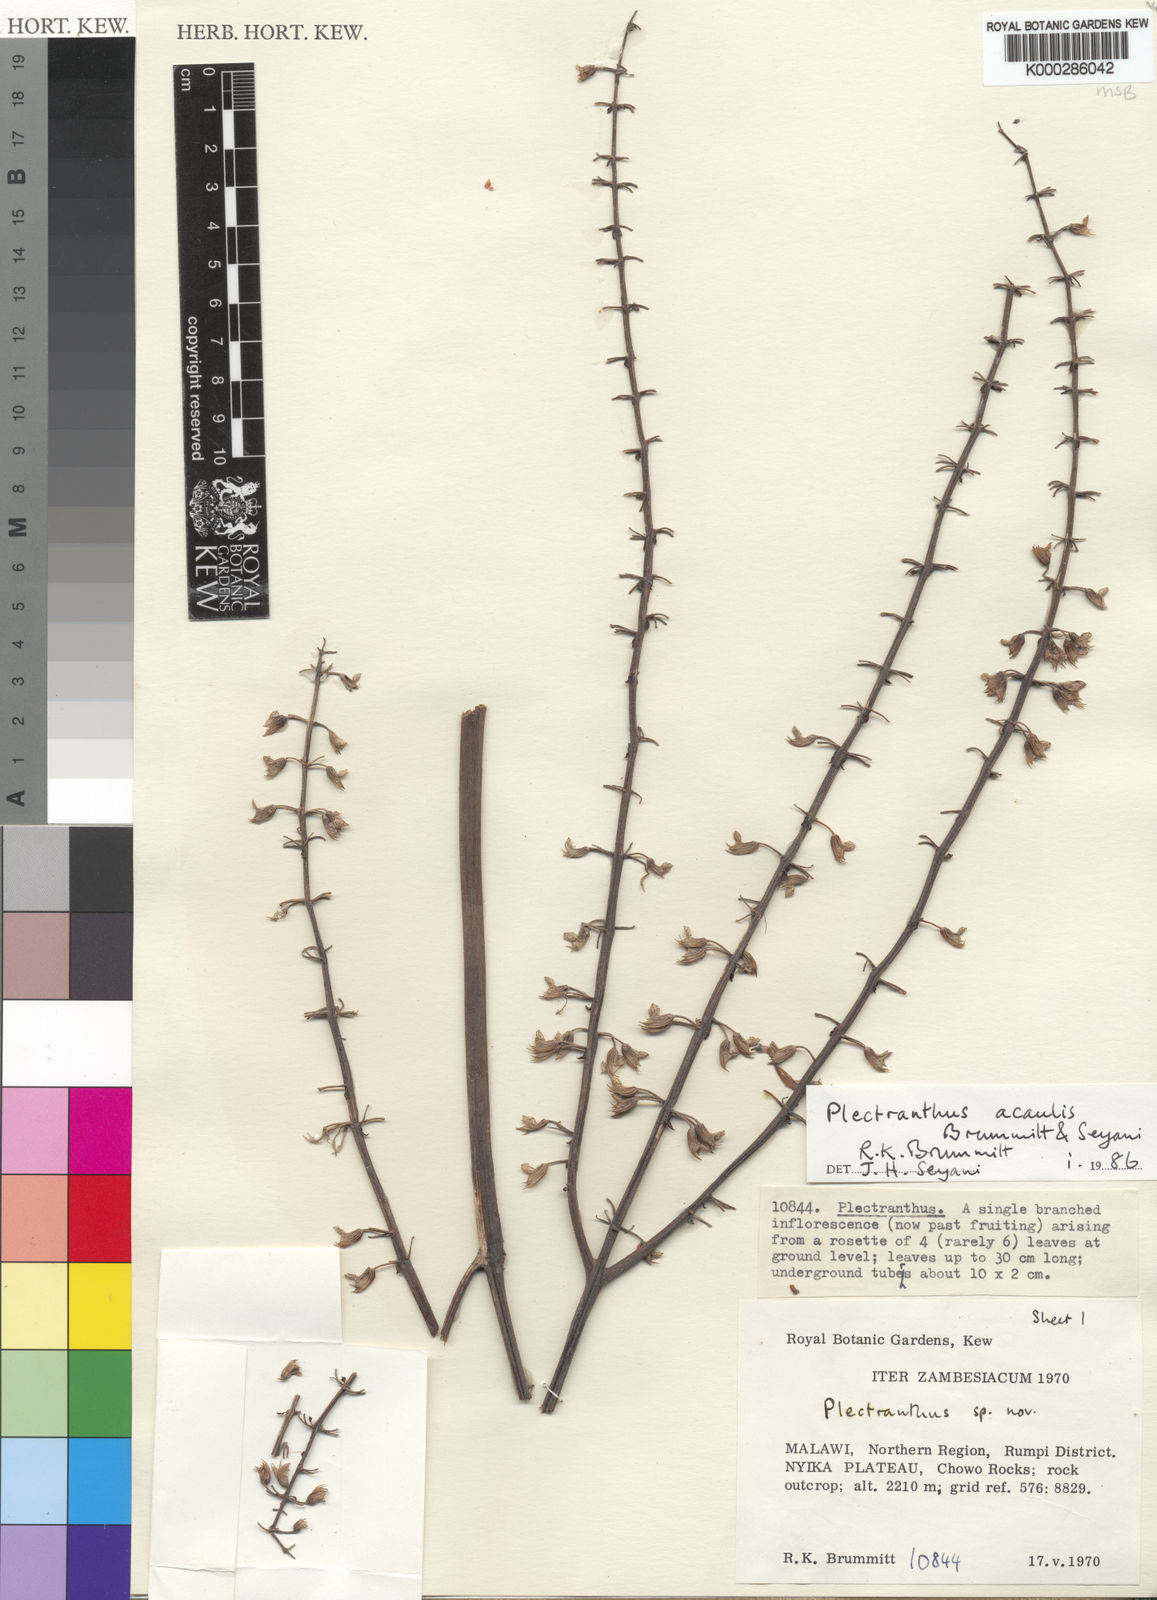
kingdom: Plantae
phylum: Tracheophyta
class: Magnoliopsida
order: Lamiales
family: Lamiaceae
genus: Equilabium
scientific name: Equilabium acaule
